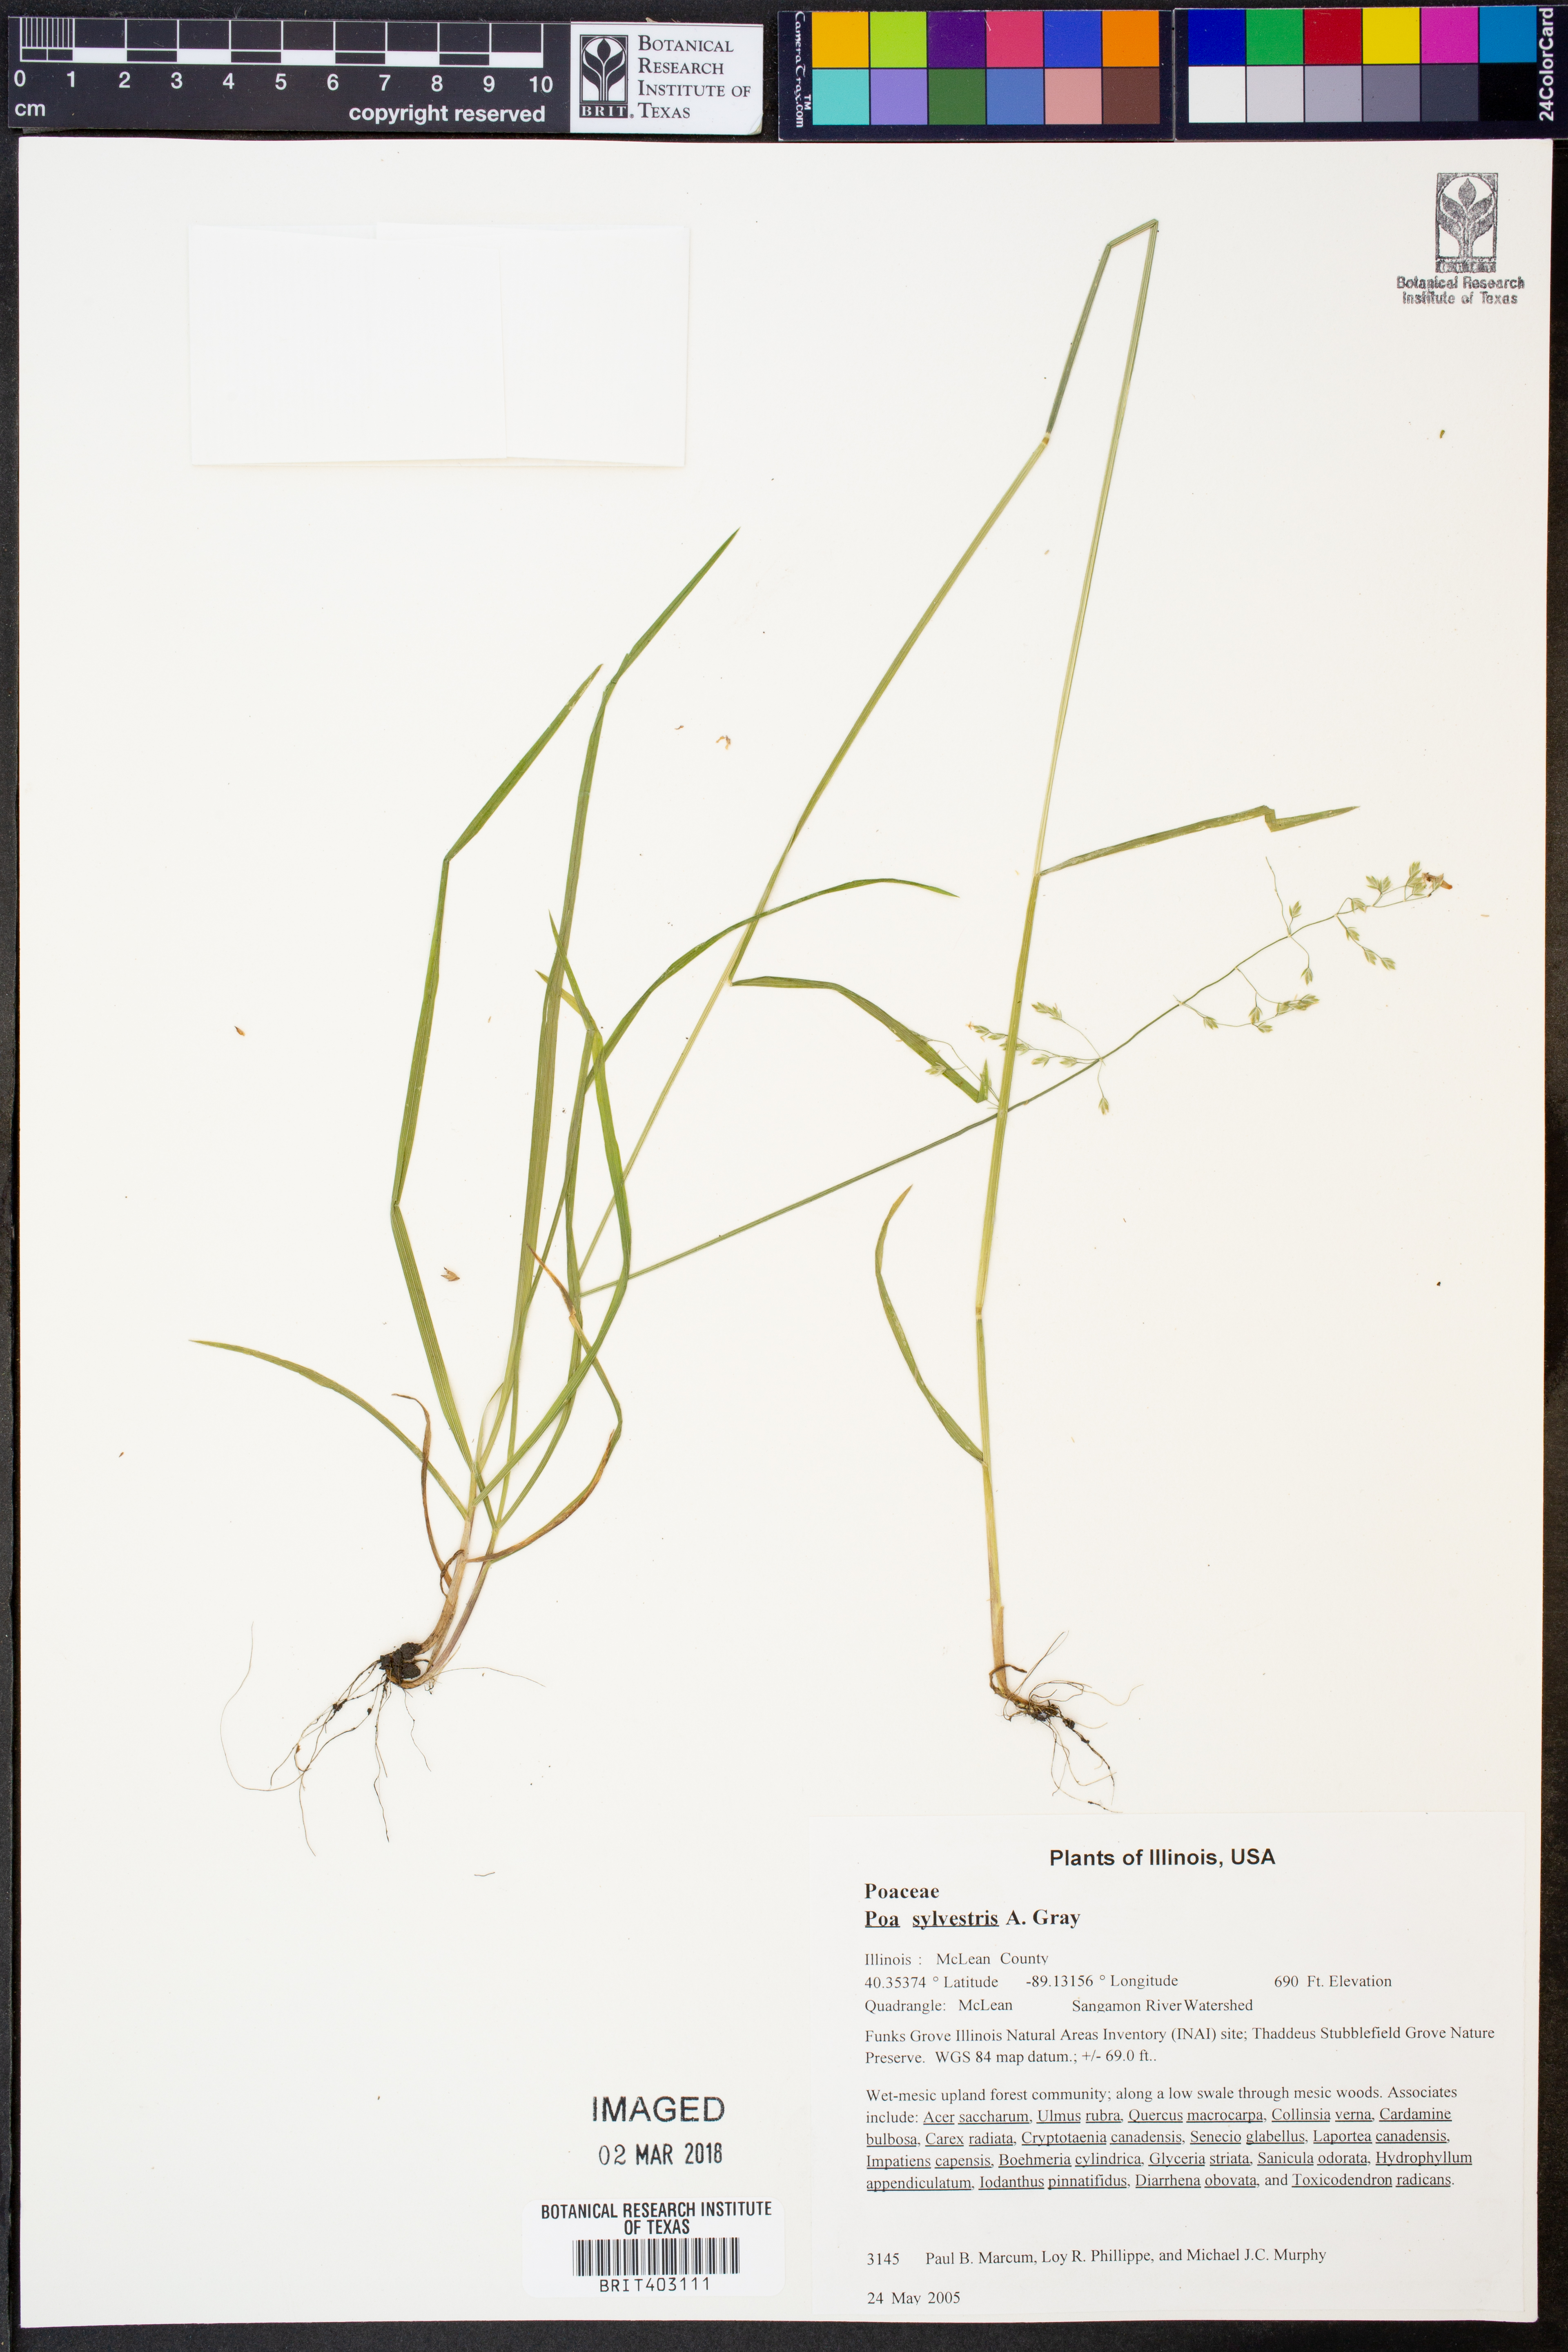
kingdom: Plantae
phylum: Tracheophyta
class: Liliopsida
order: Poales
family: Poaceae
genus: Poa
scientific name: Poa sylvestris
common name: North american woodland bluegrass
